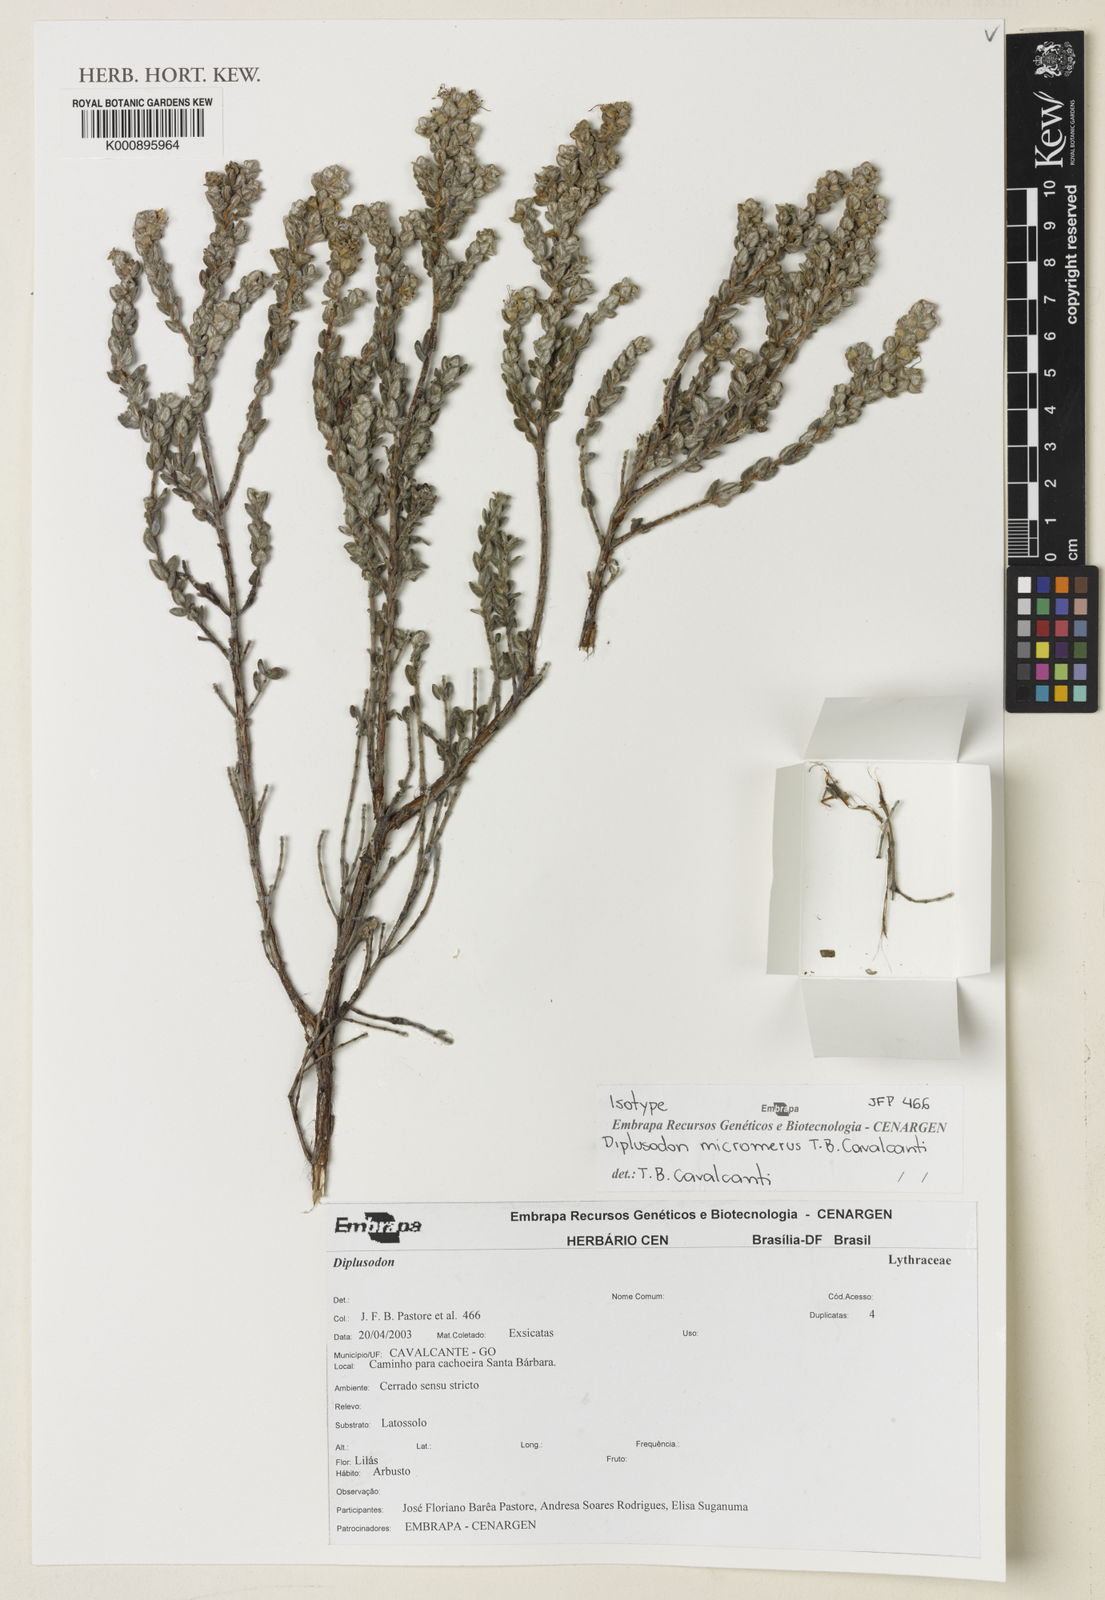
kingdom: Plantae
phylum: Tracheophyta
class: Magnoliopsida
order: Myrtales
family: Lythraceae
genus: Diplusodon
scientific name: Diplusodon micromerus
